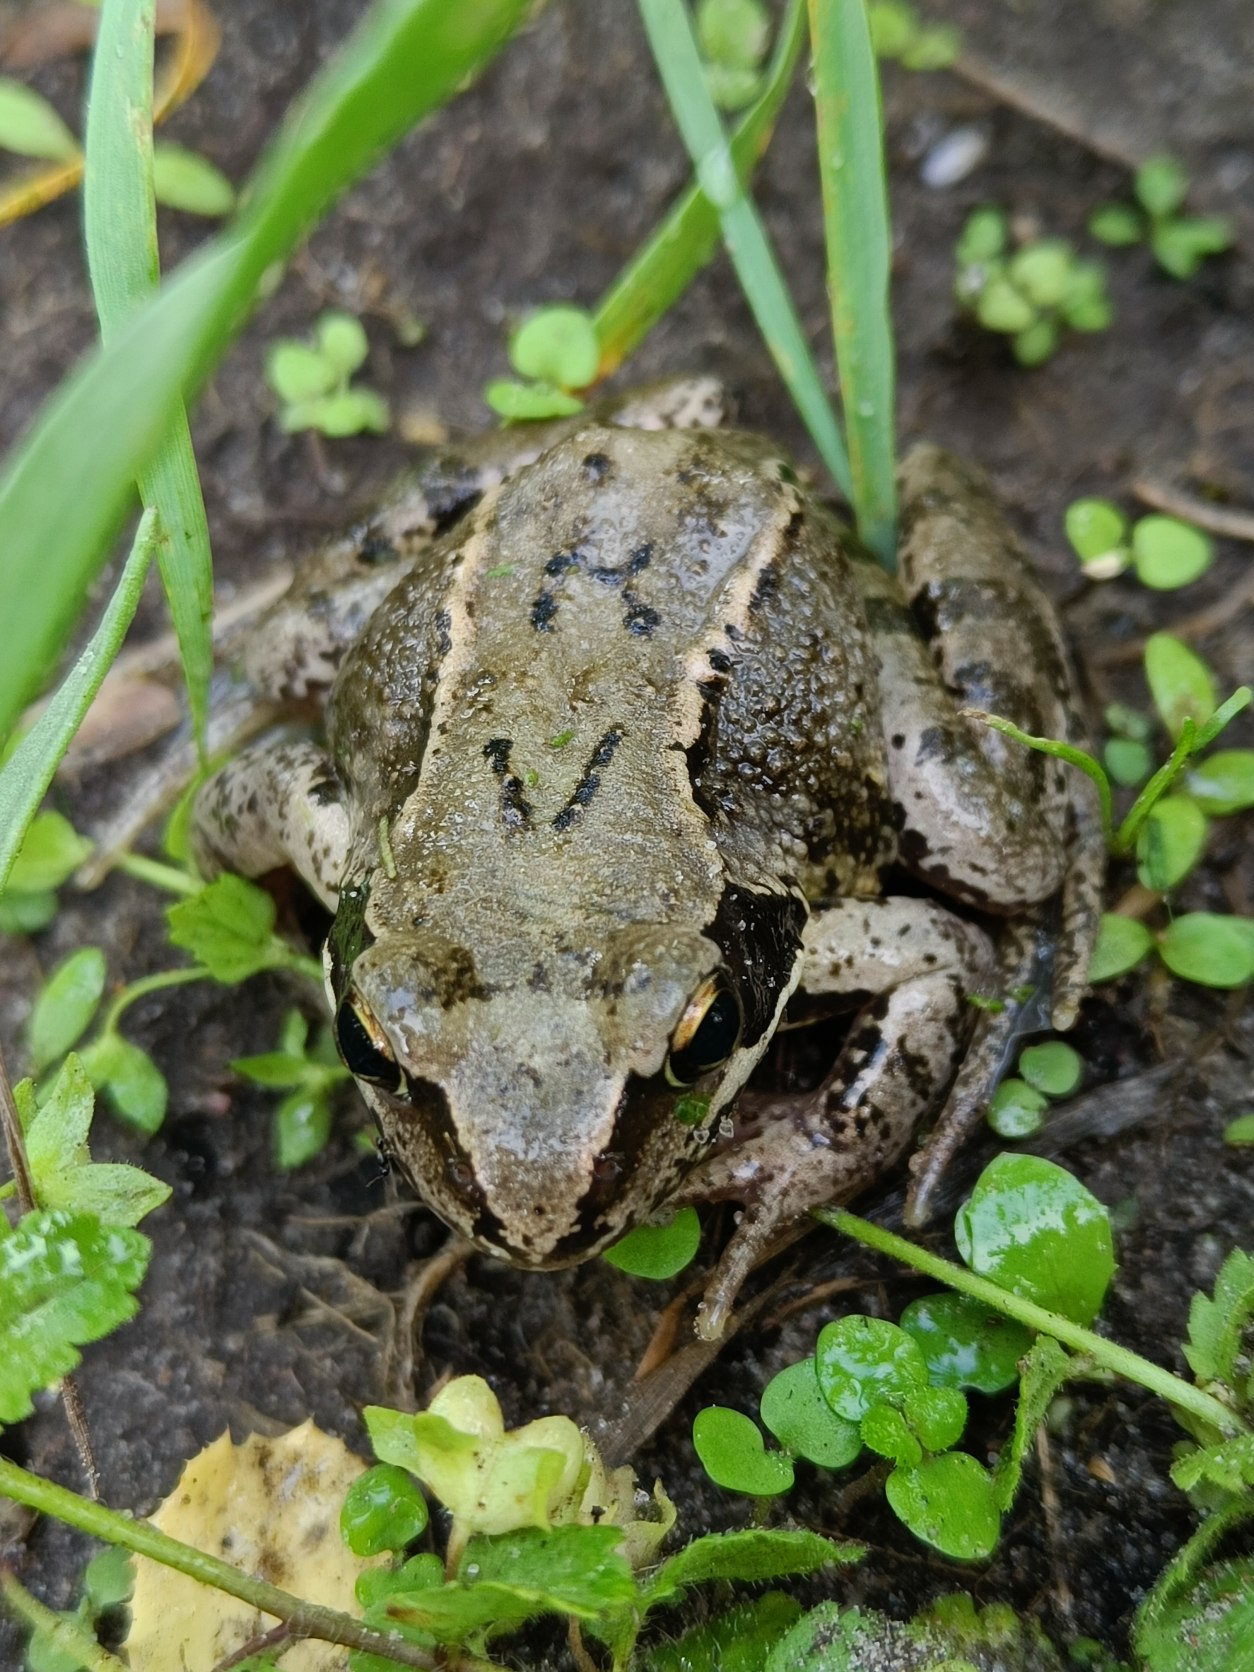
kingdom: Animalia
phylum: Chordata
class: Amphibia
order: Anura
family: Ranidae
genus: Rana
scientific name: Rana temporaria
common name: Butsnudet frø
